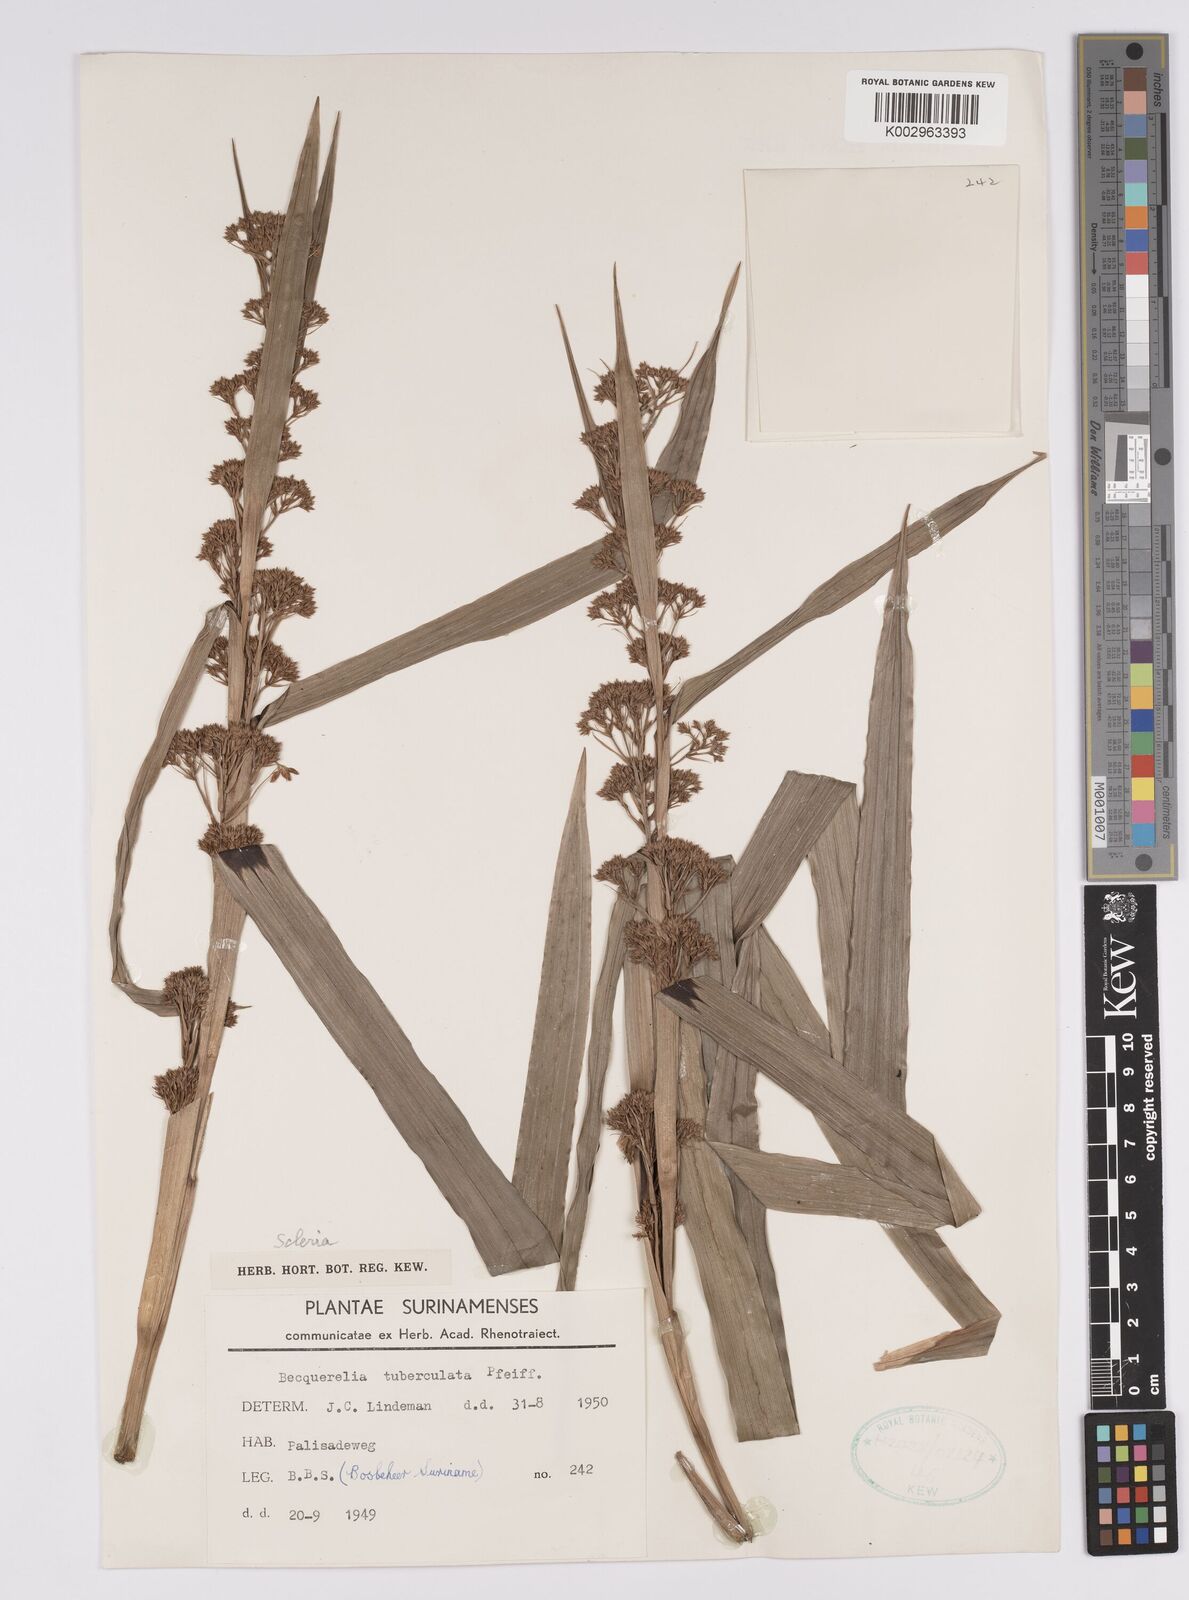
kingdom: Plantae
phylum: Tracheophyta
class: Liliopsida
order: Poales
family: Cyperaceae
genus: Becquerelia
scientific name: Becquerelia tuberculata
